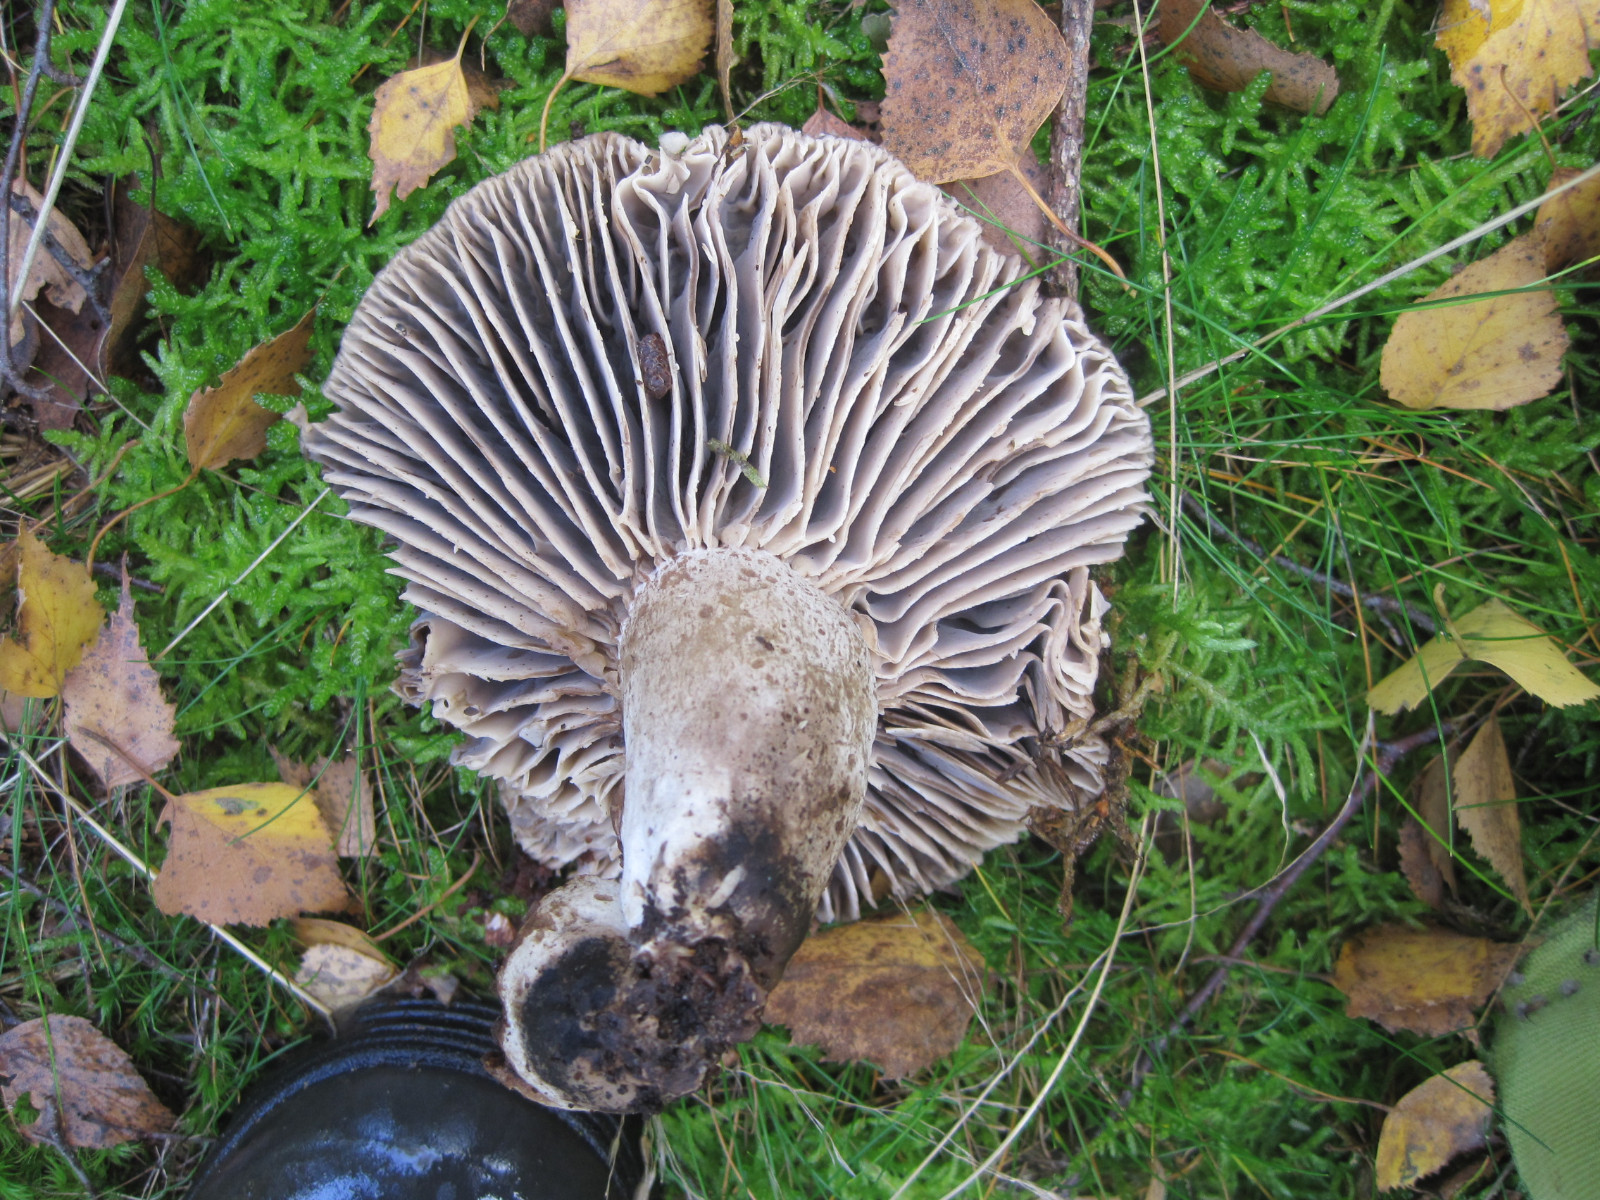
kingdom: Fungi
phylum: Basidiomycota
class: Agaricomycetes
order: Russulales
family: Russulaceae
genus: Russula
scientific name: Russula adusta
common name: sværtende skørhat
